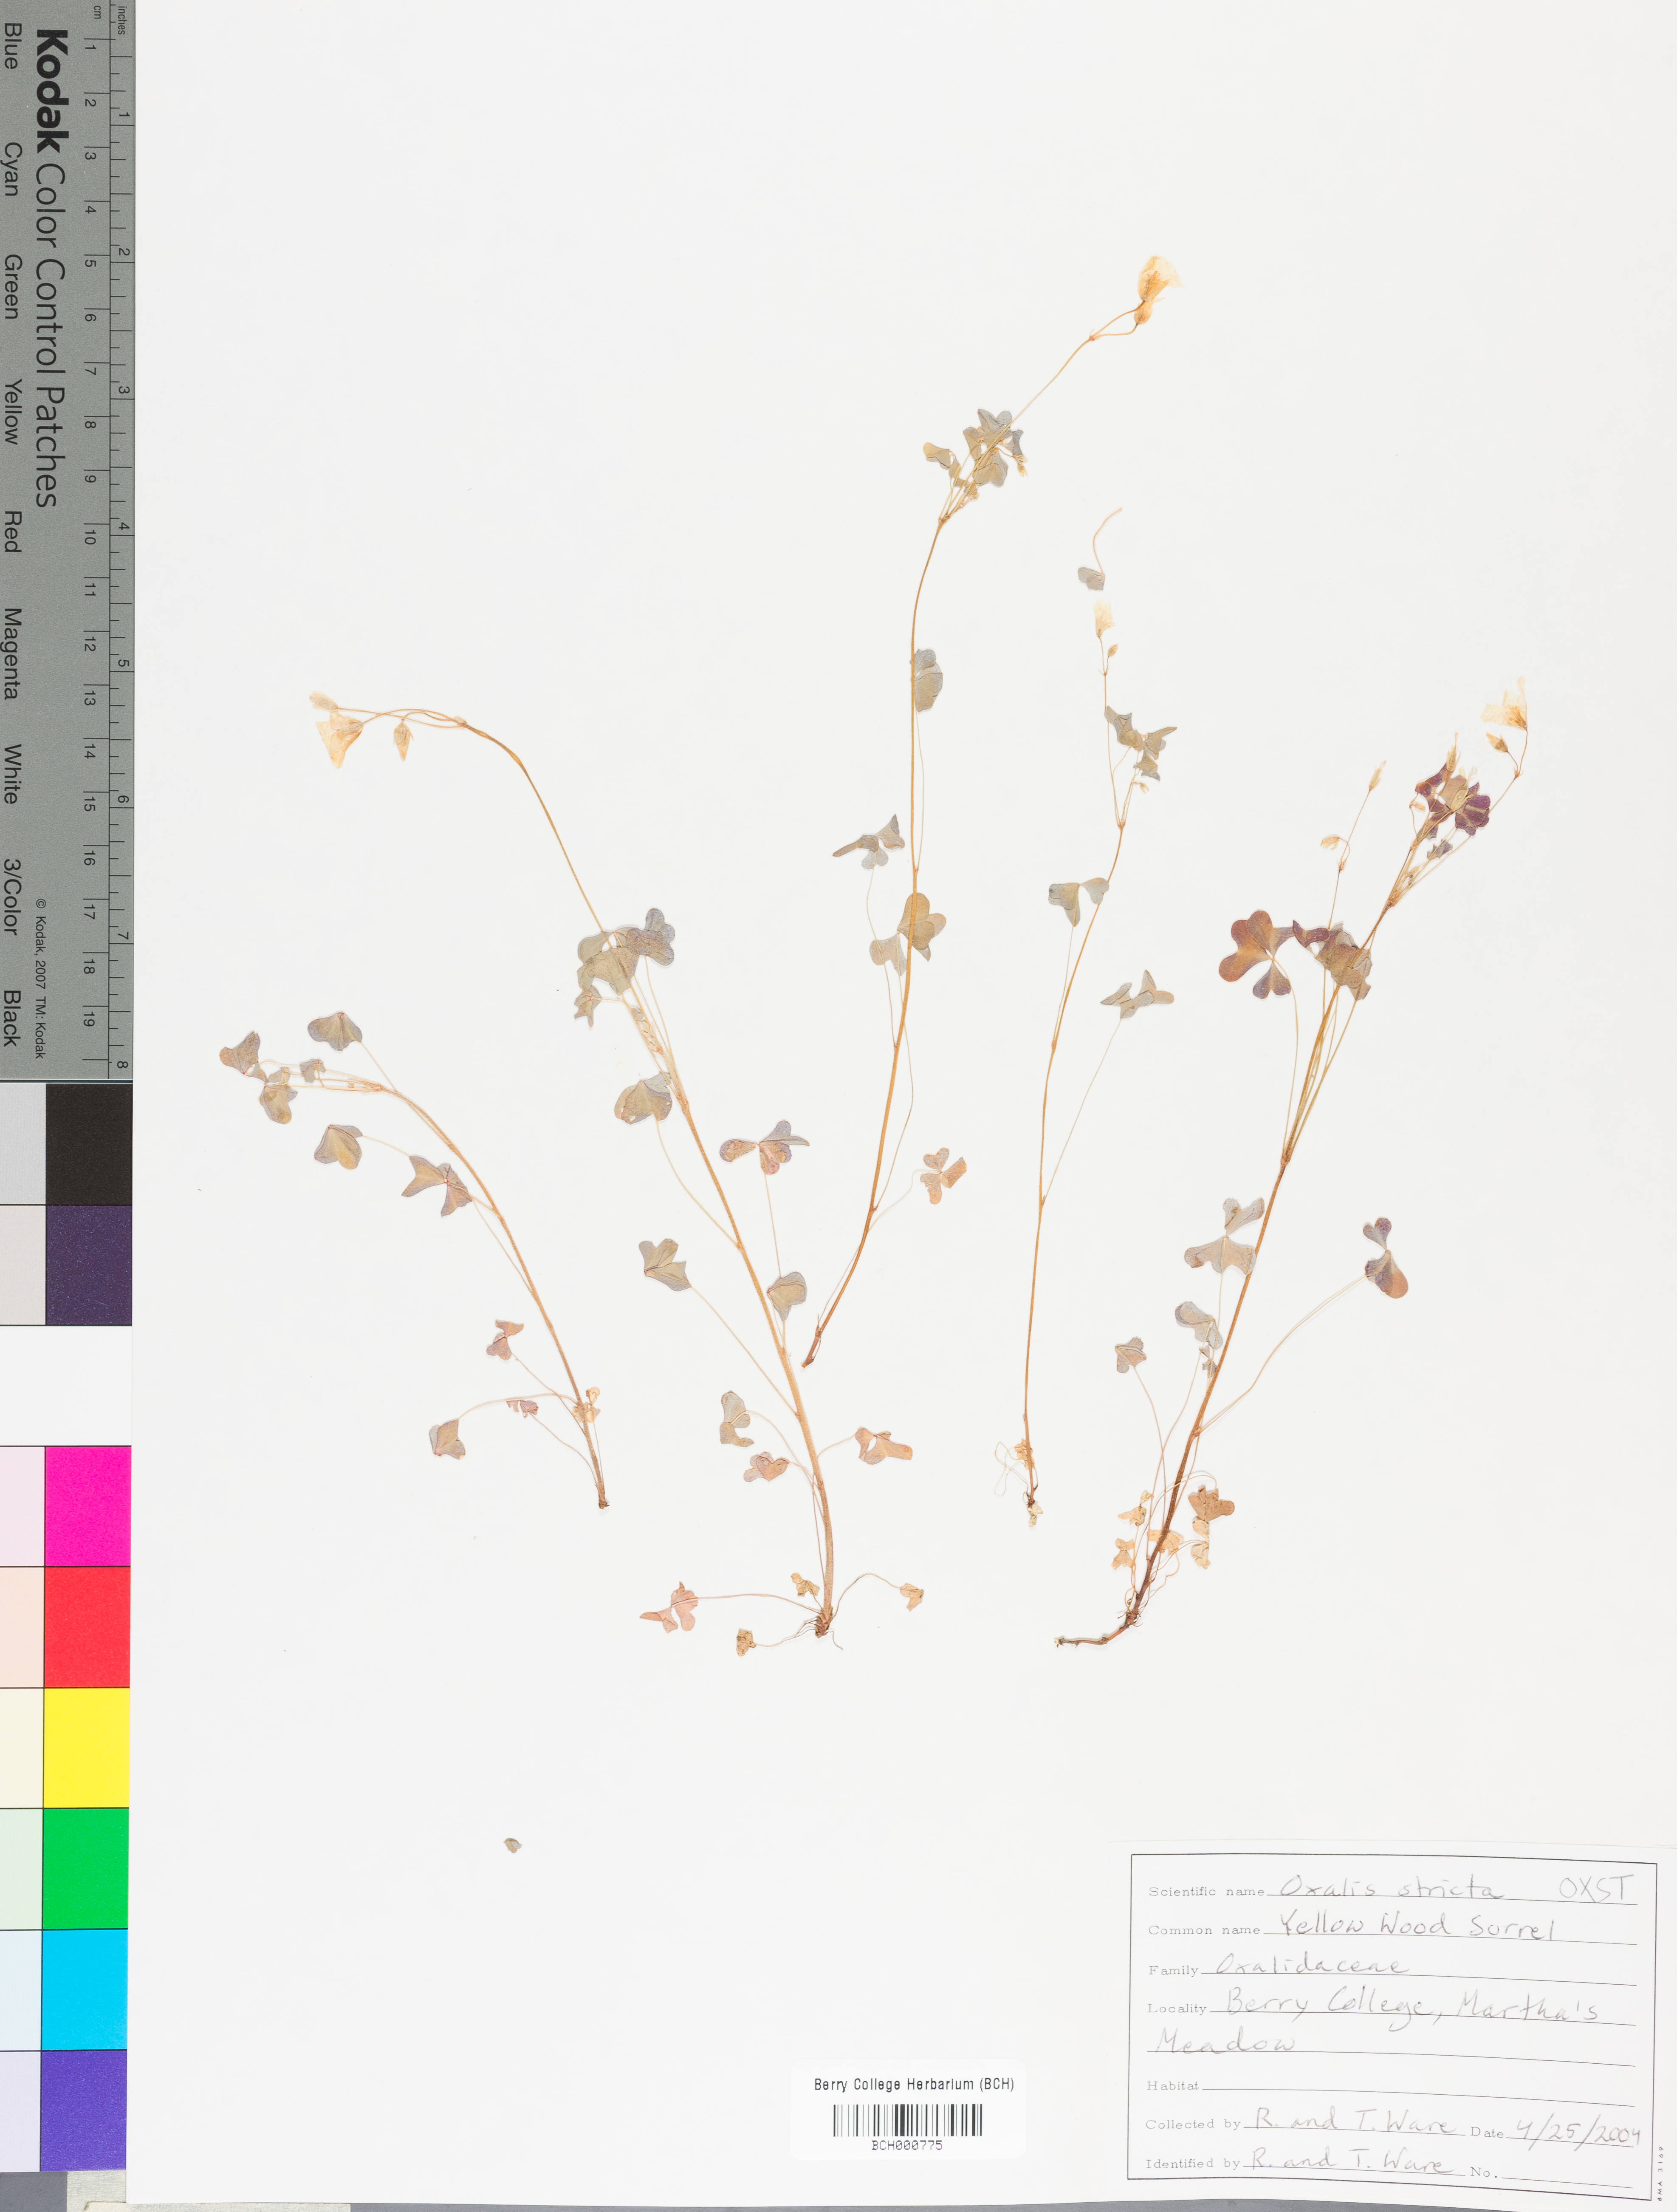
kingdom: Plantae
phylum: Tracheophyta
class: Magnoliopsida
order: Oxalidales
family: Oxalidaceae
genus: Oxalis
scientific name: Oxalis stricta
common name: Upright yellow-sorrel
